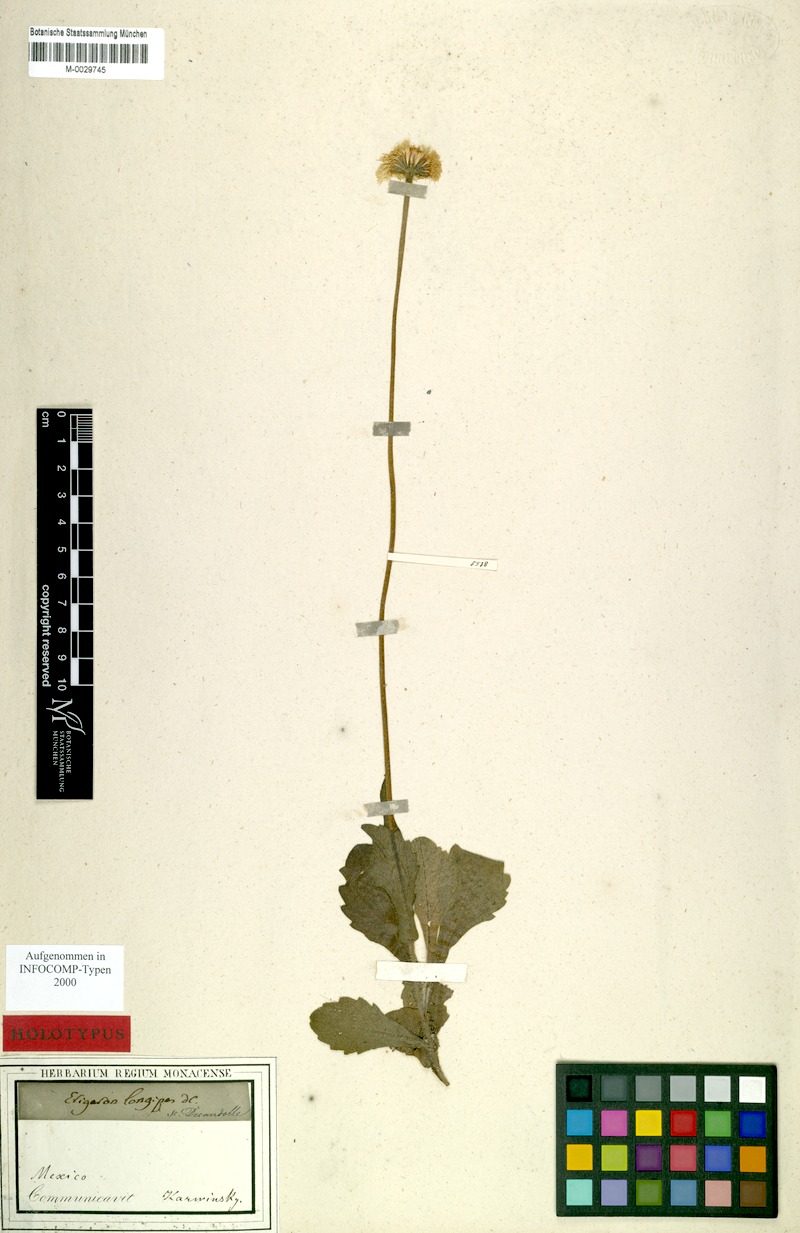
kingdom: Plantae
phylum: Tracheophyta
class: Magnoliopsida
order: Asterales
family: Asteraceae
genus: Erigeron
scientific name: Erigeron longipes
